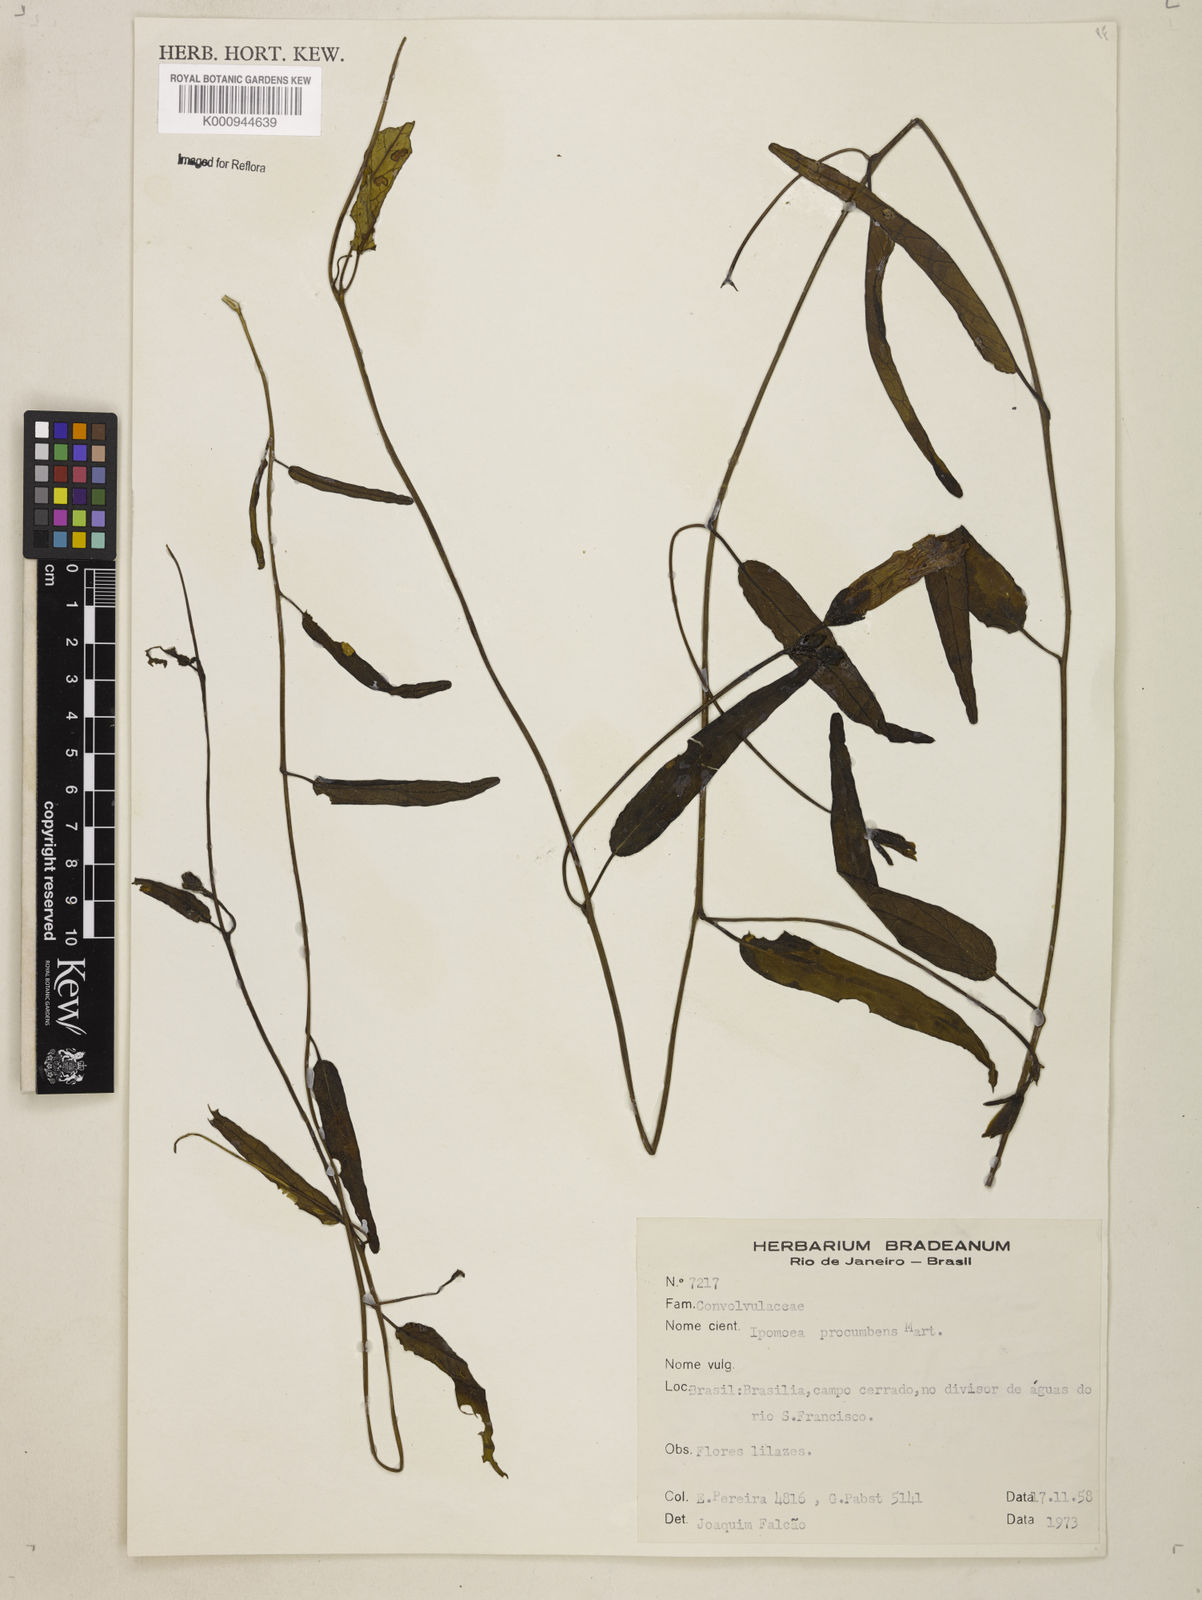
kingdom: Plantae
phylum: Tracheophyta
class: Magnoliopsida
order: Solanales
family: Convolvulaceae
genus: Ipomoea
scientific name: Ipomoea procumbens
